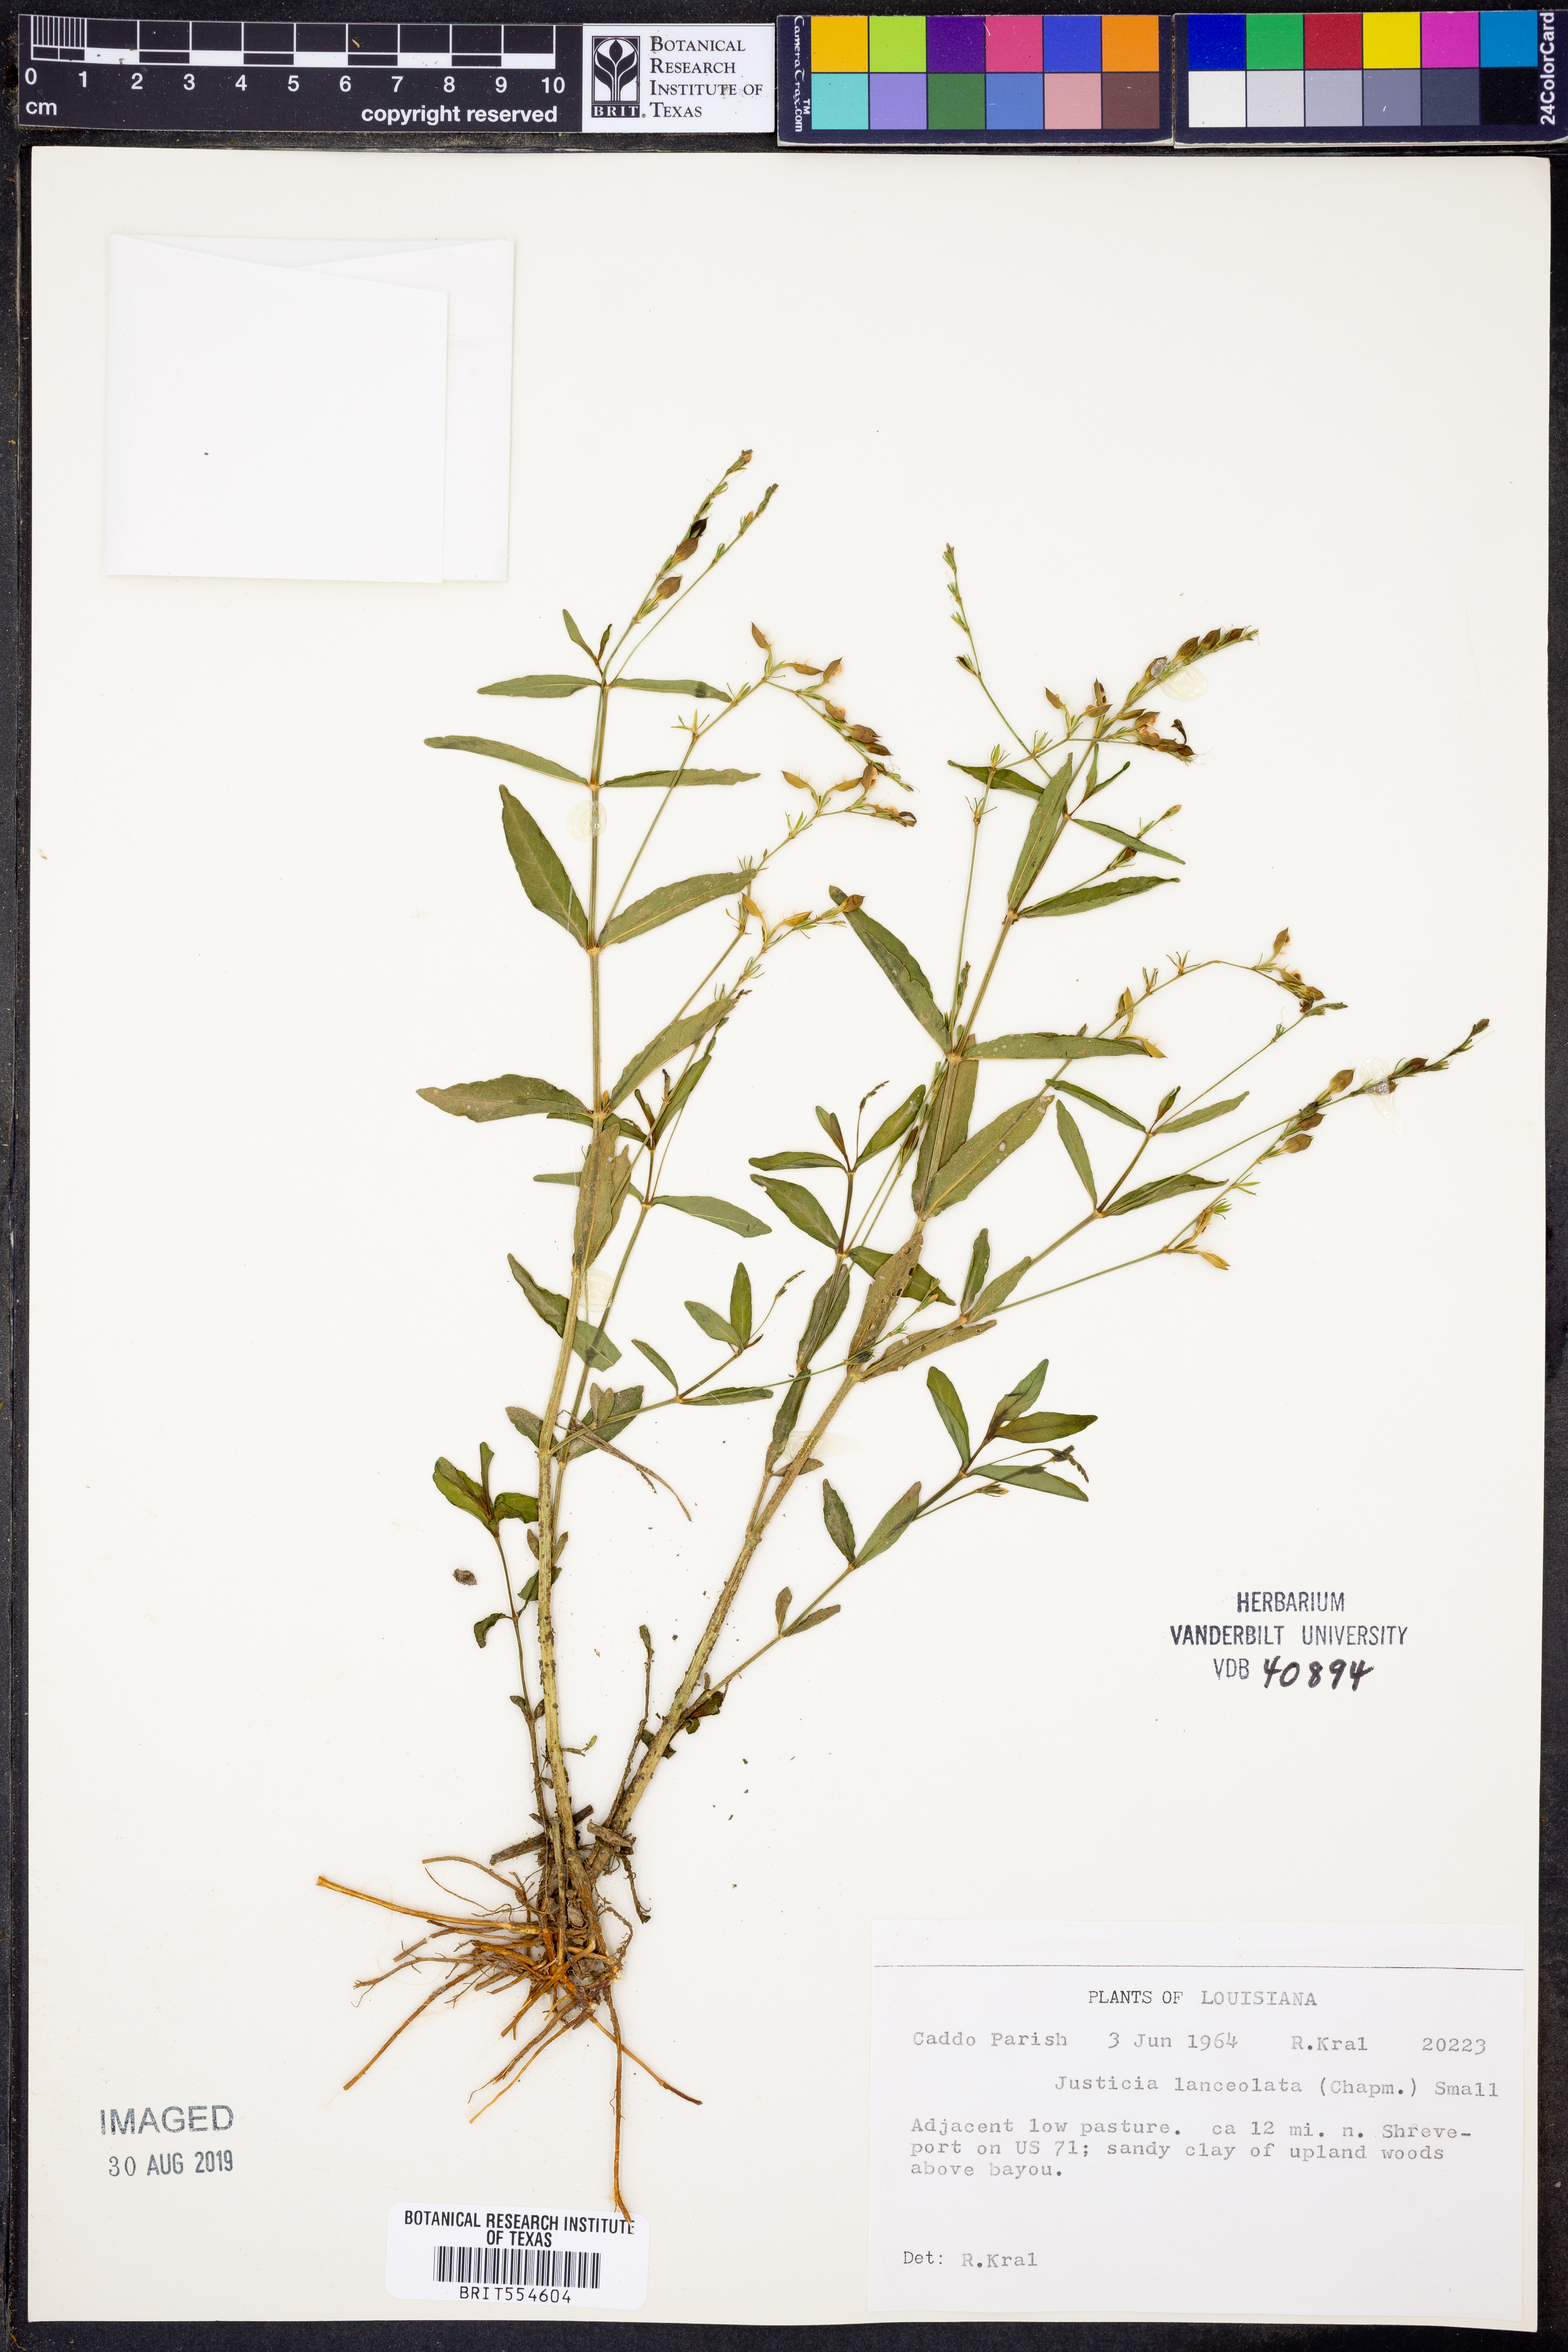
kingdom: Plantae
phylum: Tracheophyta
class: Magnoliopsida
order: Lamiales
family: Acanthaceae
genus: Justicia
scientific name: Justicia lanceolata
